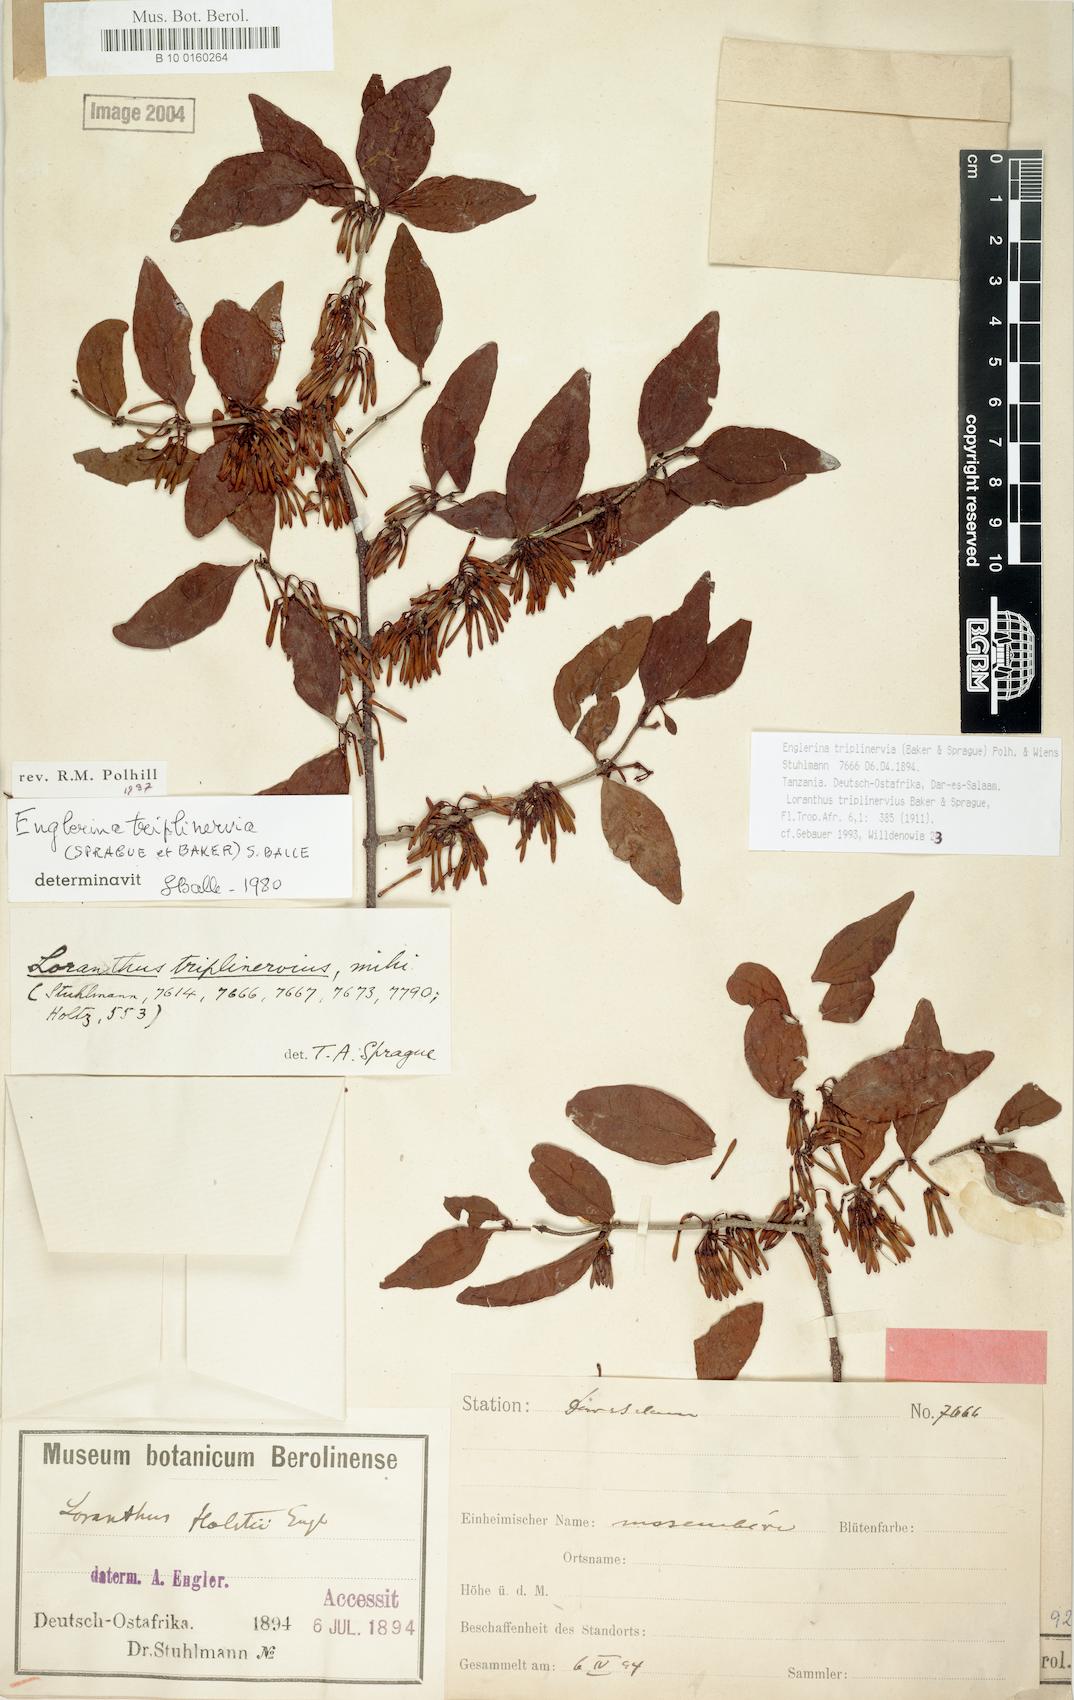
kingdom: Plantae
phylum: Tracheophyta
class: Magnoliopsida
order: Santalales
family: Loranthaceae
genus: Englerina
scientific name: Englerina triplinervia
